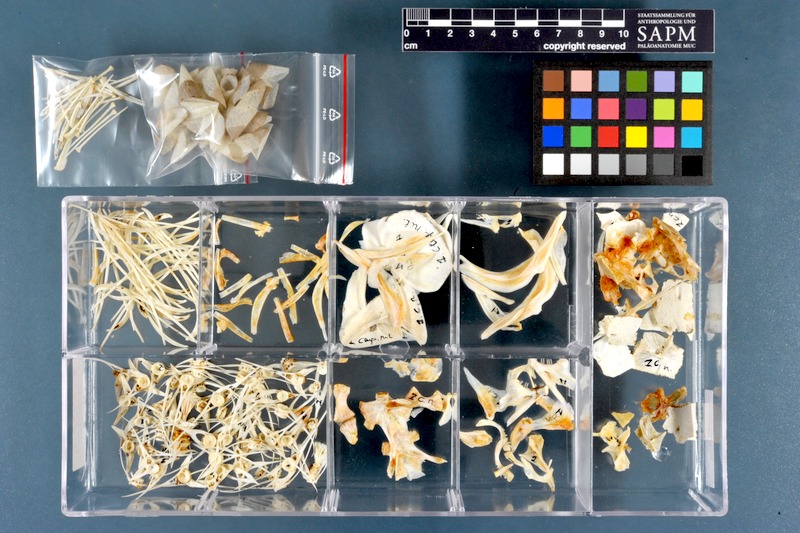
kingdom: Animalia
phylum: Chordata
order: Osteoglossiformes
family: Arapaimidae
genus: Heterotis
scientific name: Heterotis niloticus
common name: African bonytongue
